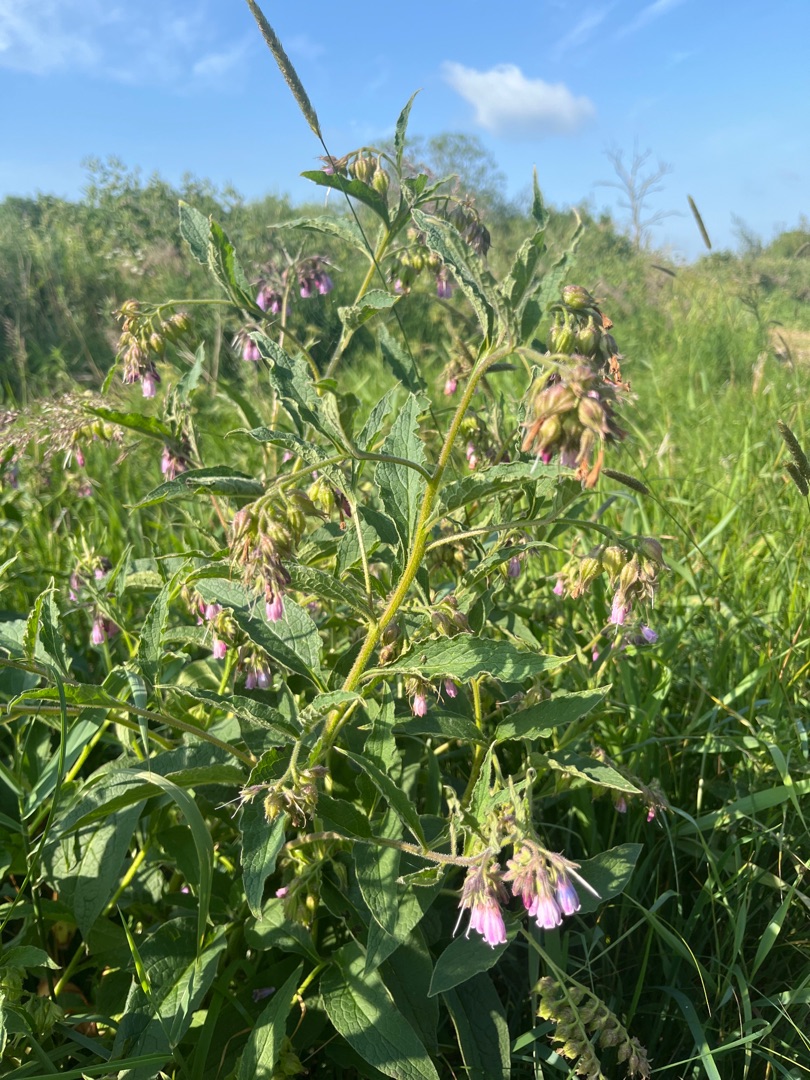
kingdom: Plantae
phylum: Tracheophyta
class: Magnoliopsida
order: Boraginales
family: Boraginaceae
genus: Symphytum
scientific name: Symphytum uplandicum
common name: Foder-kulsukker
